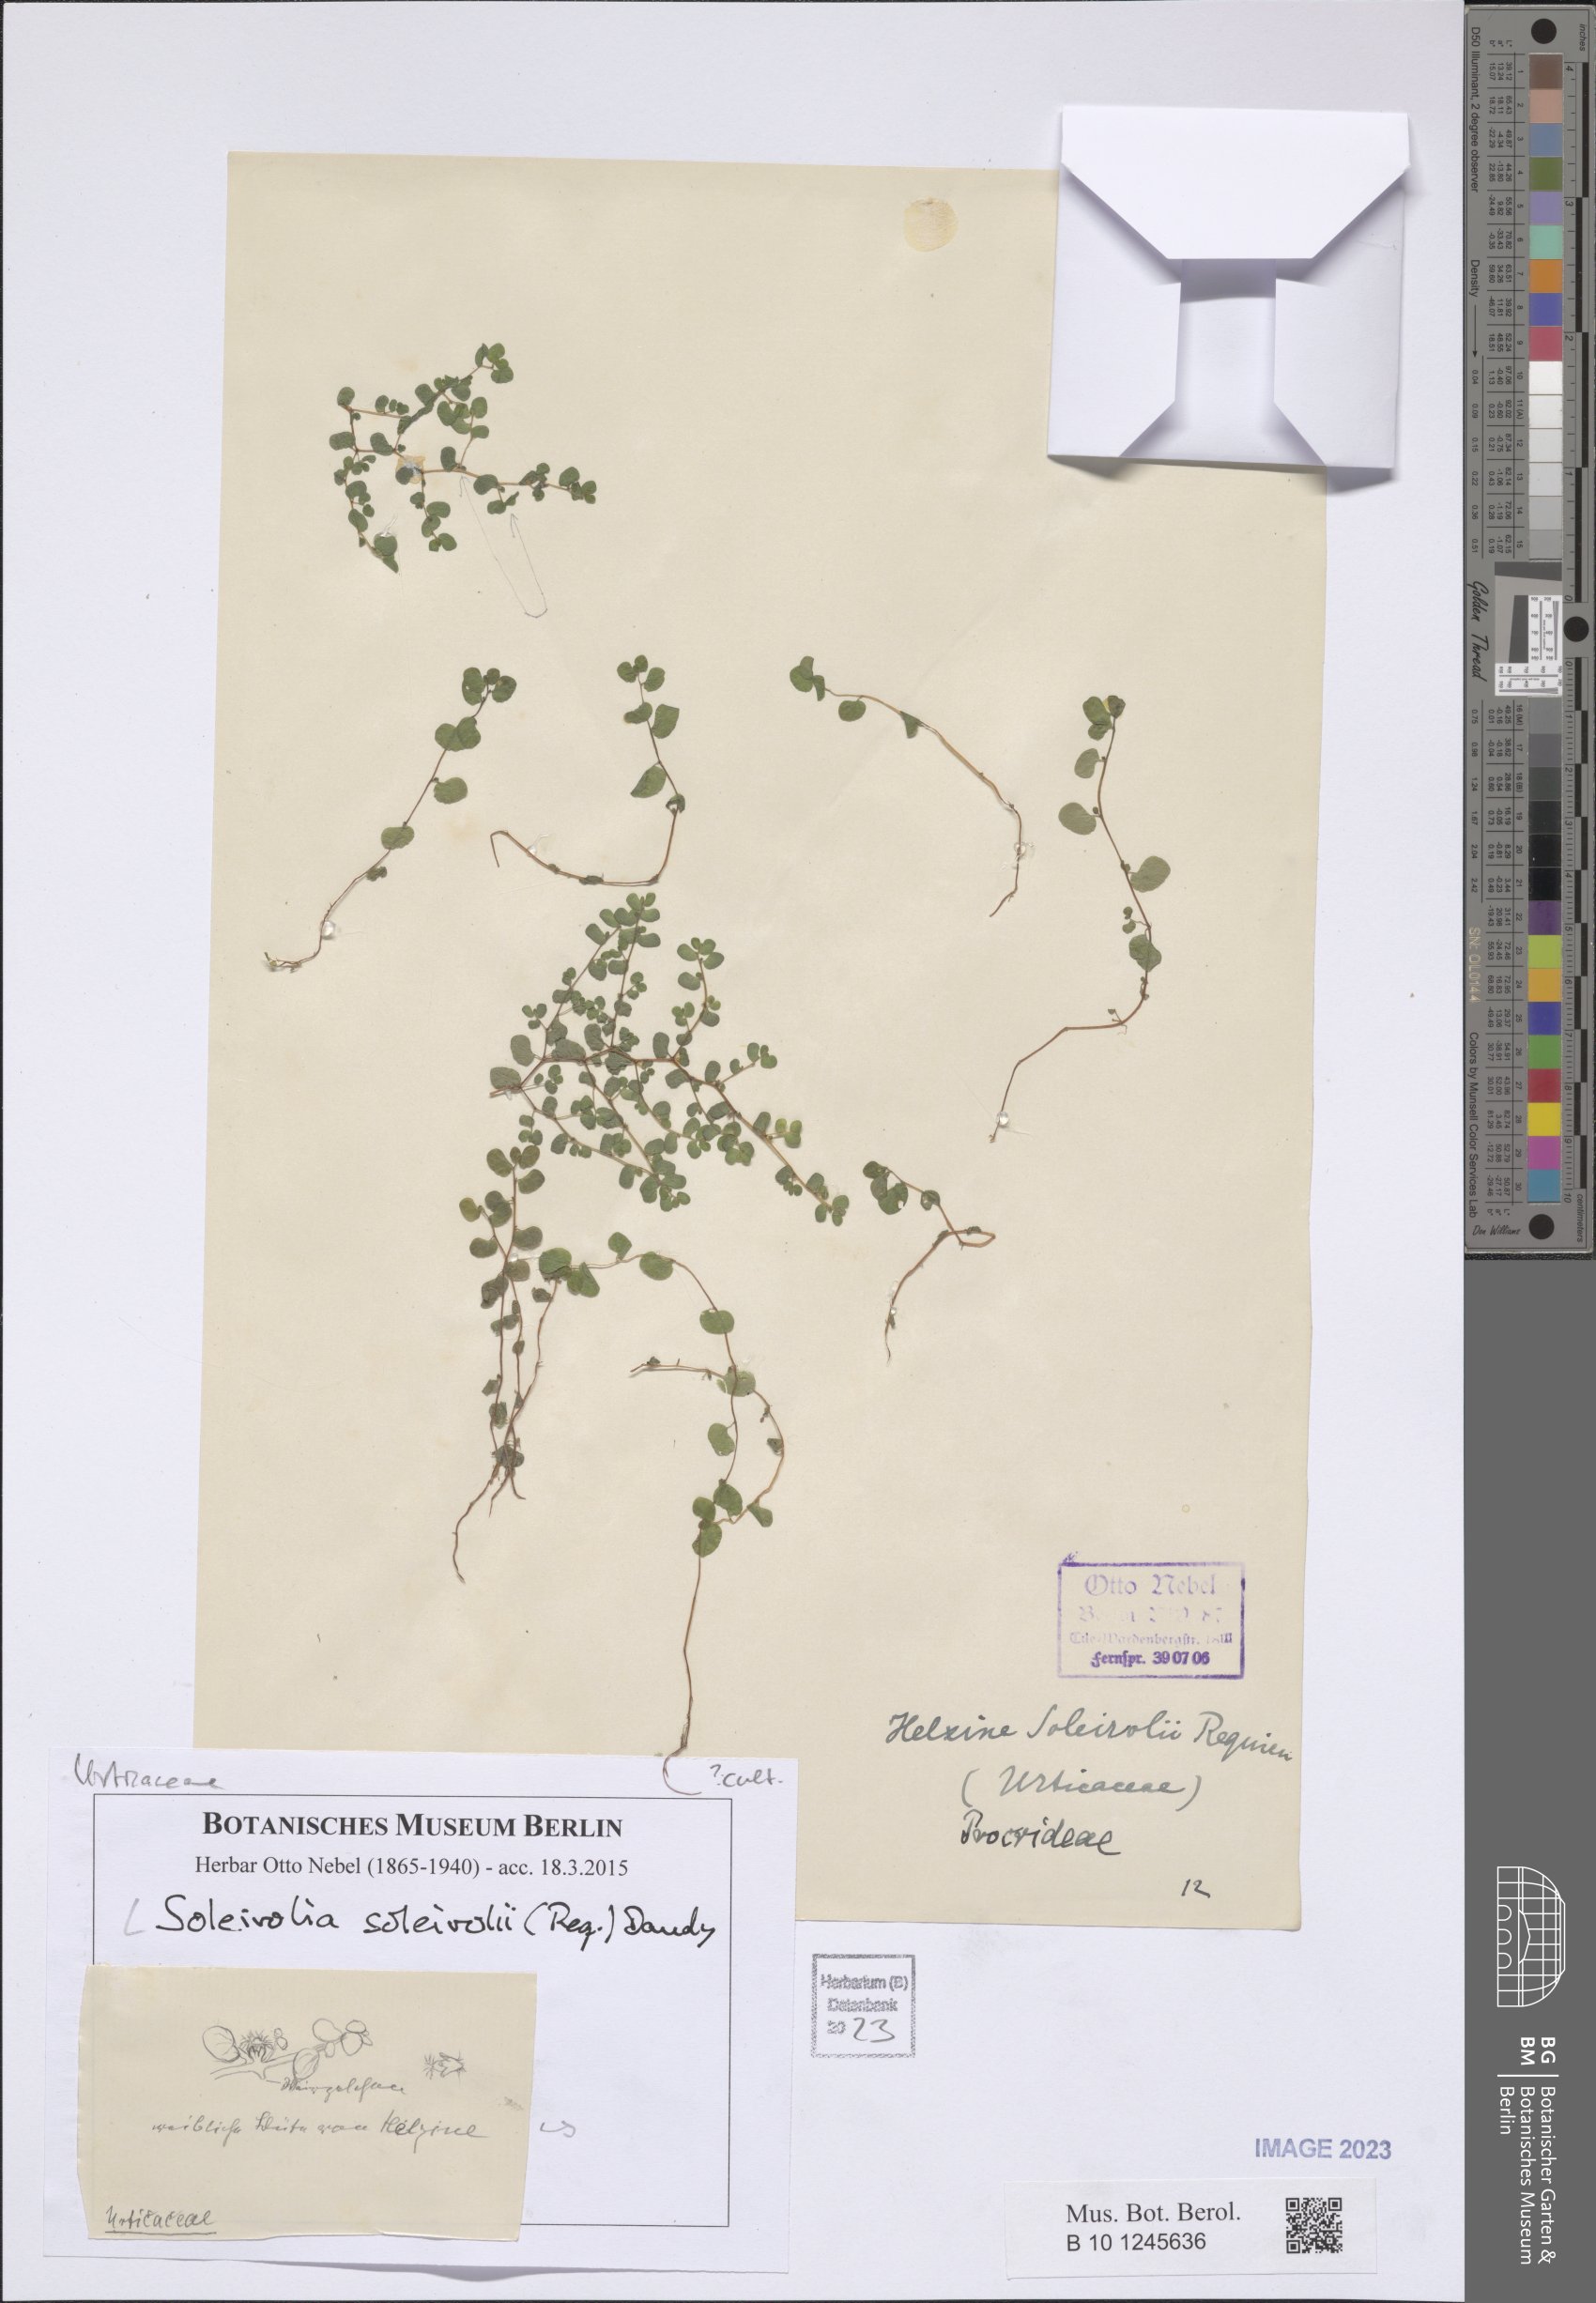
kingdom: Plantae
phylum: Tracheophyta
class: Magnoliopsida
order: Rosales
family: Urticaceae
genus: Soleirolia
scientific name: Soleirolia soleirolii
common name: Mind-your-own-business
